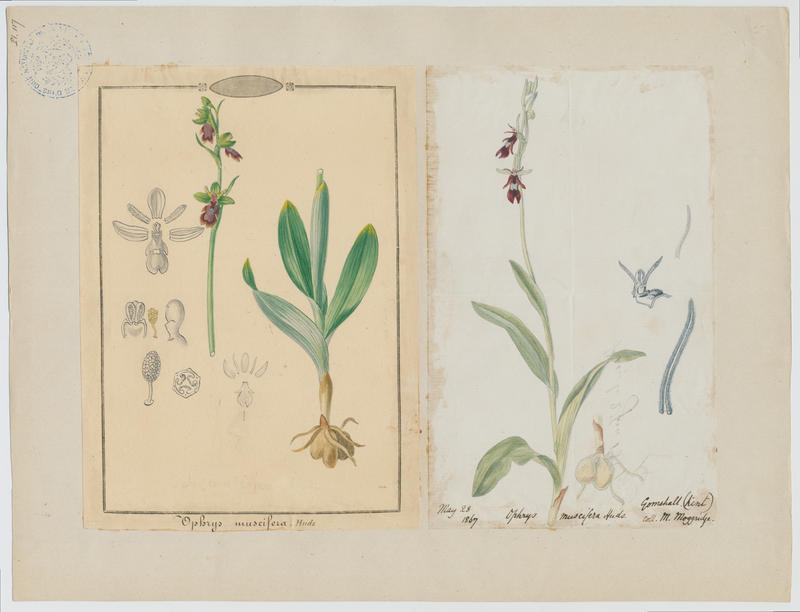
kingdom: Plantae
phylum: Tracheophyta
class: Liliopsida
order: Asparagales
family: Orchidaceae
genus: Ophrys
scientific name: Ophrys insectifera
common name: Fly orchid
